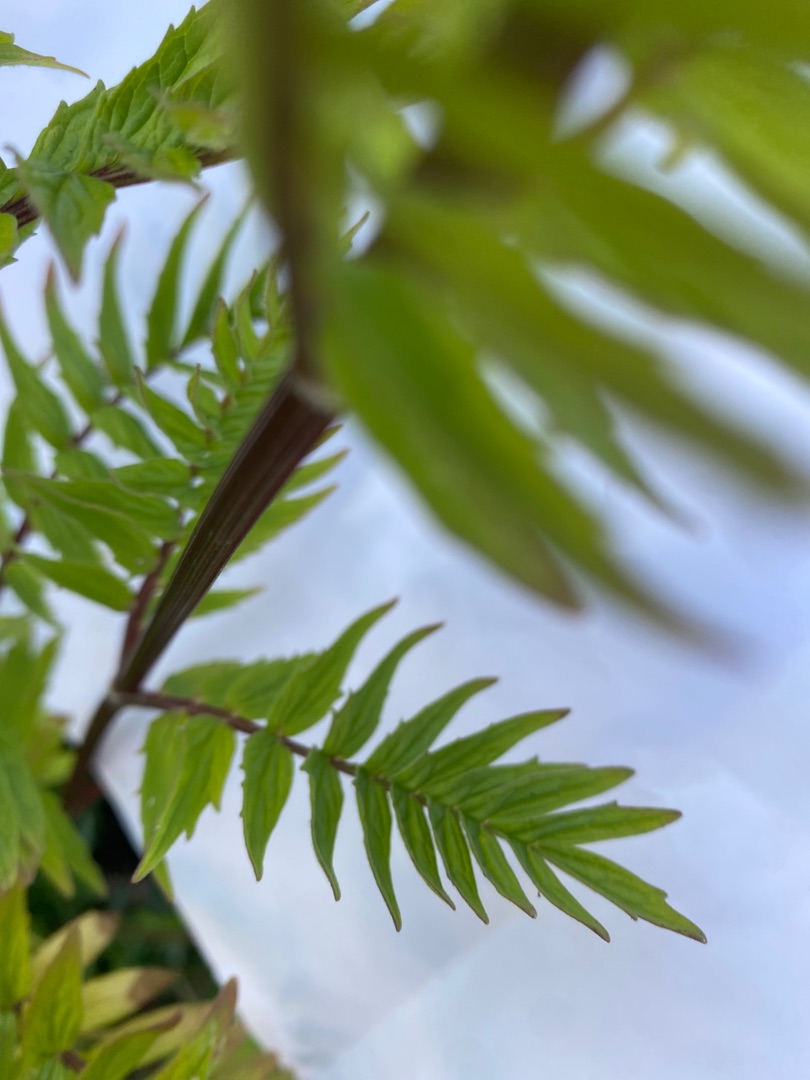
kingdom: Plantae
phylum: Tracheophyta
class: Magnoliopsida
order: Dipsacales
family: Caprifoliaceae
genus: Valeriana
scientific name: Valeriana officinalis
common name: Læge-baldrian
